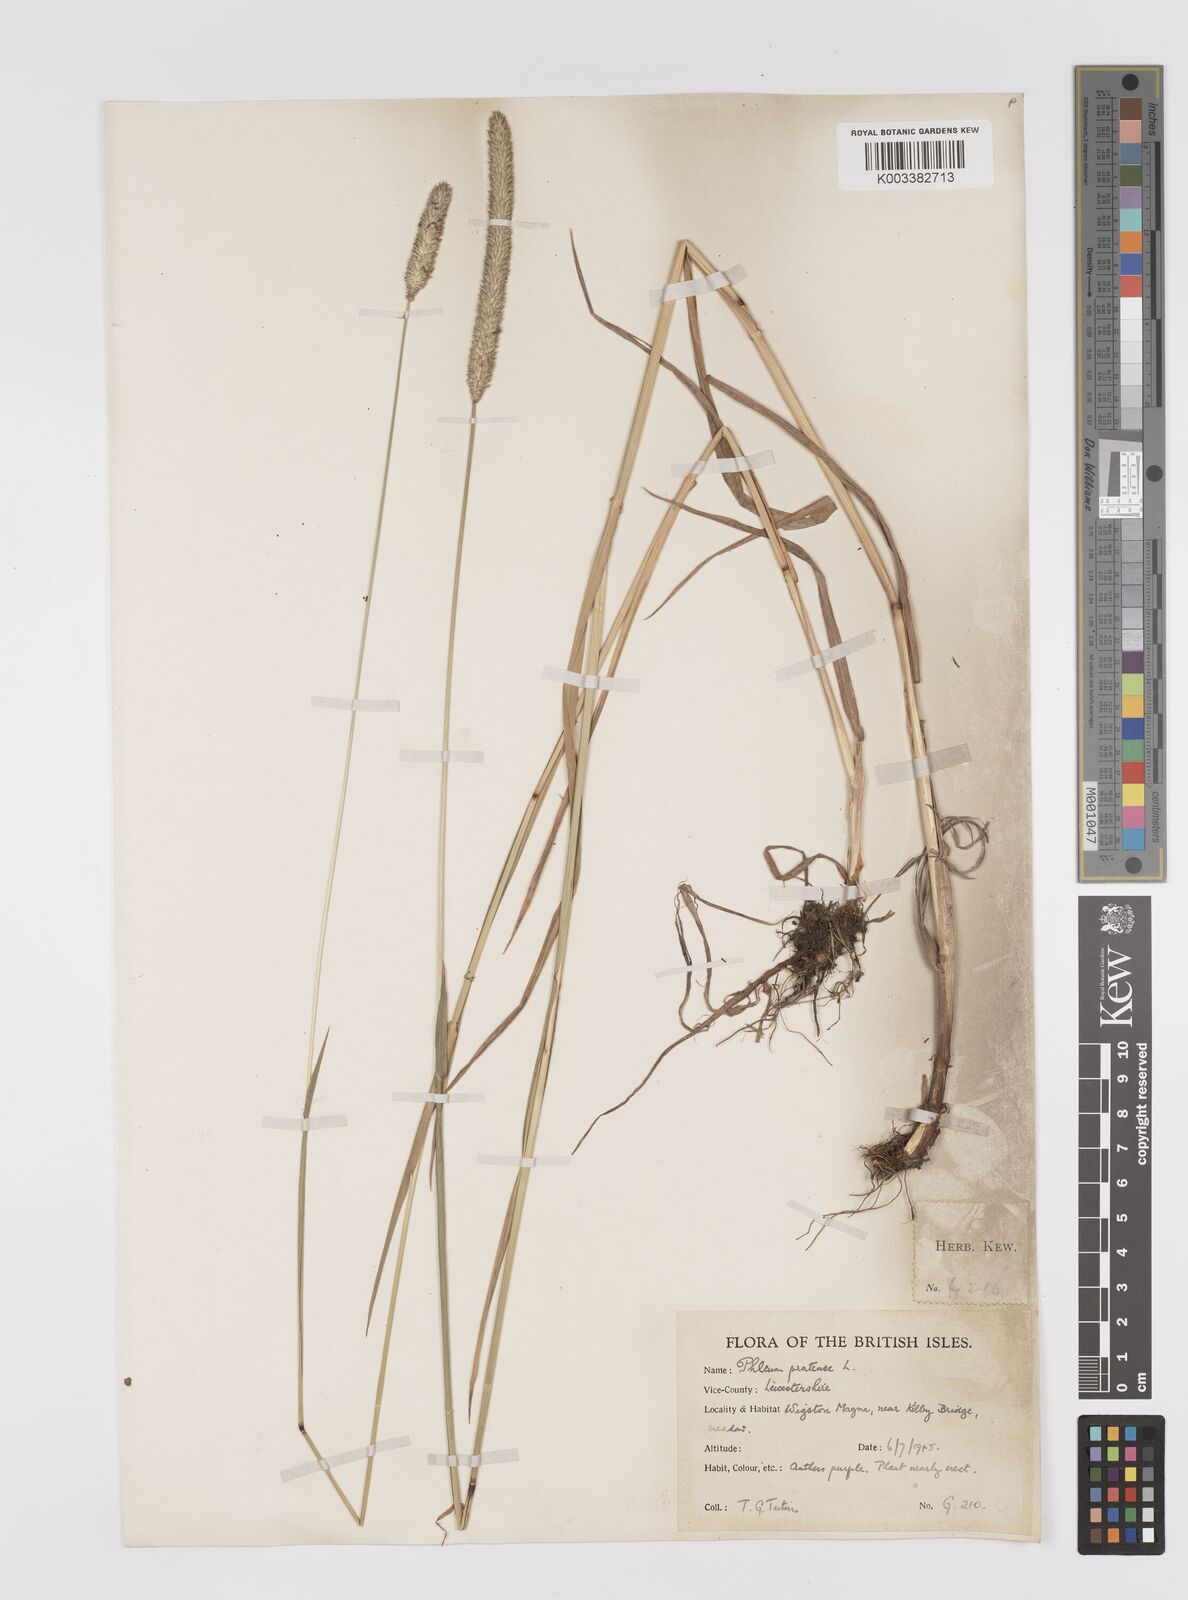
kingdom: Plantae
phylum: Tracheophyta
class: Liliopsida
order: Poales
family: Poaceae
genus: Phleum
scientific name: Phleum pratense
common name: Timothy grass
